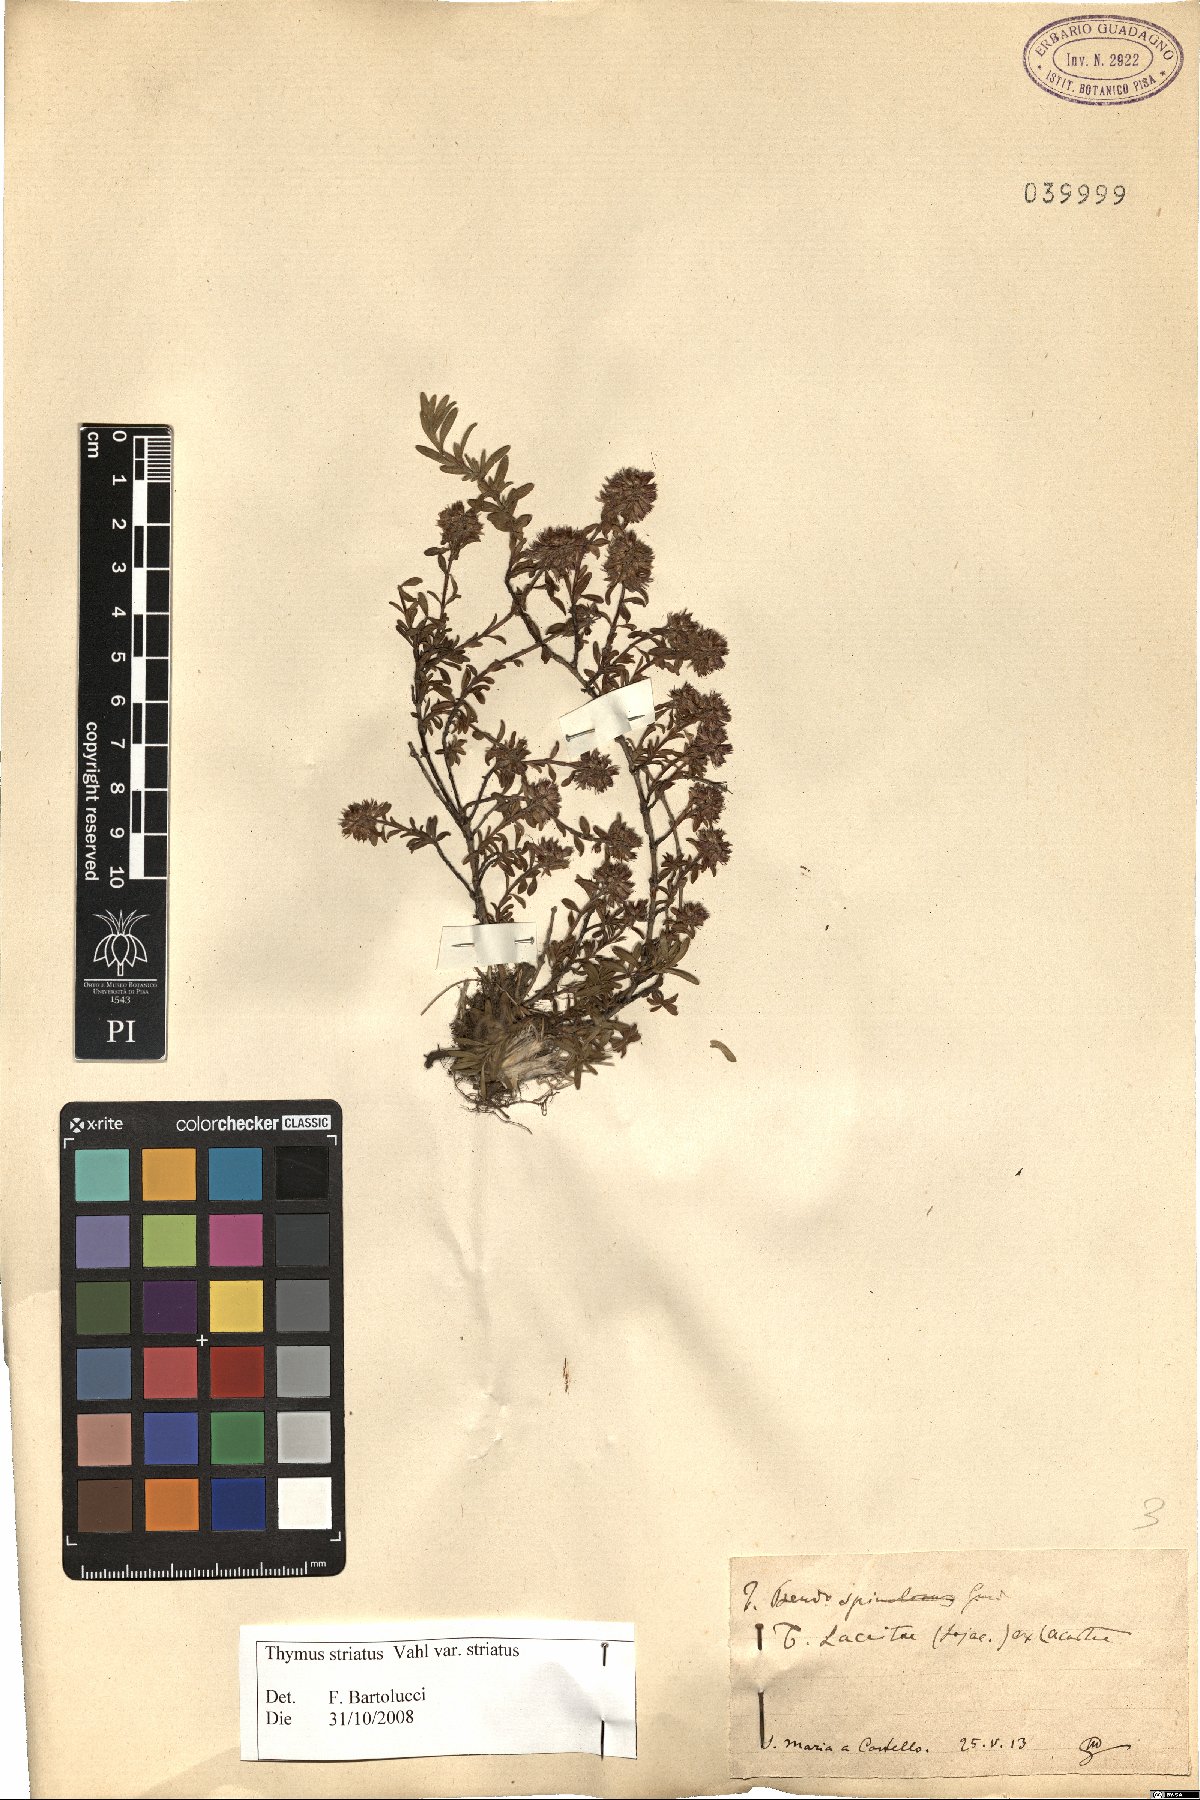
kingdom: Plantae
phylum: Tracheophyta
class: Magnoliopsida
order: Lamiales
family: Lamiaceae
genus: Thymus
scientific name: Thymus striatus
